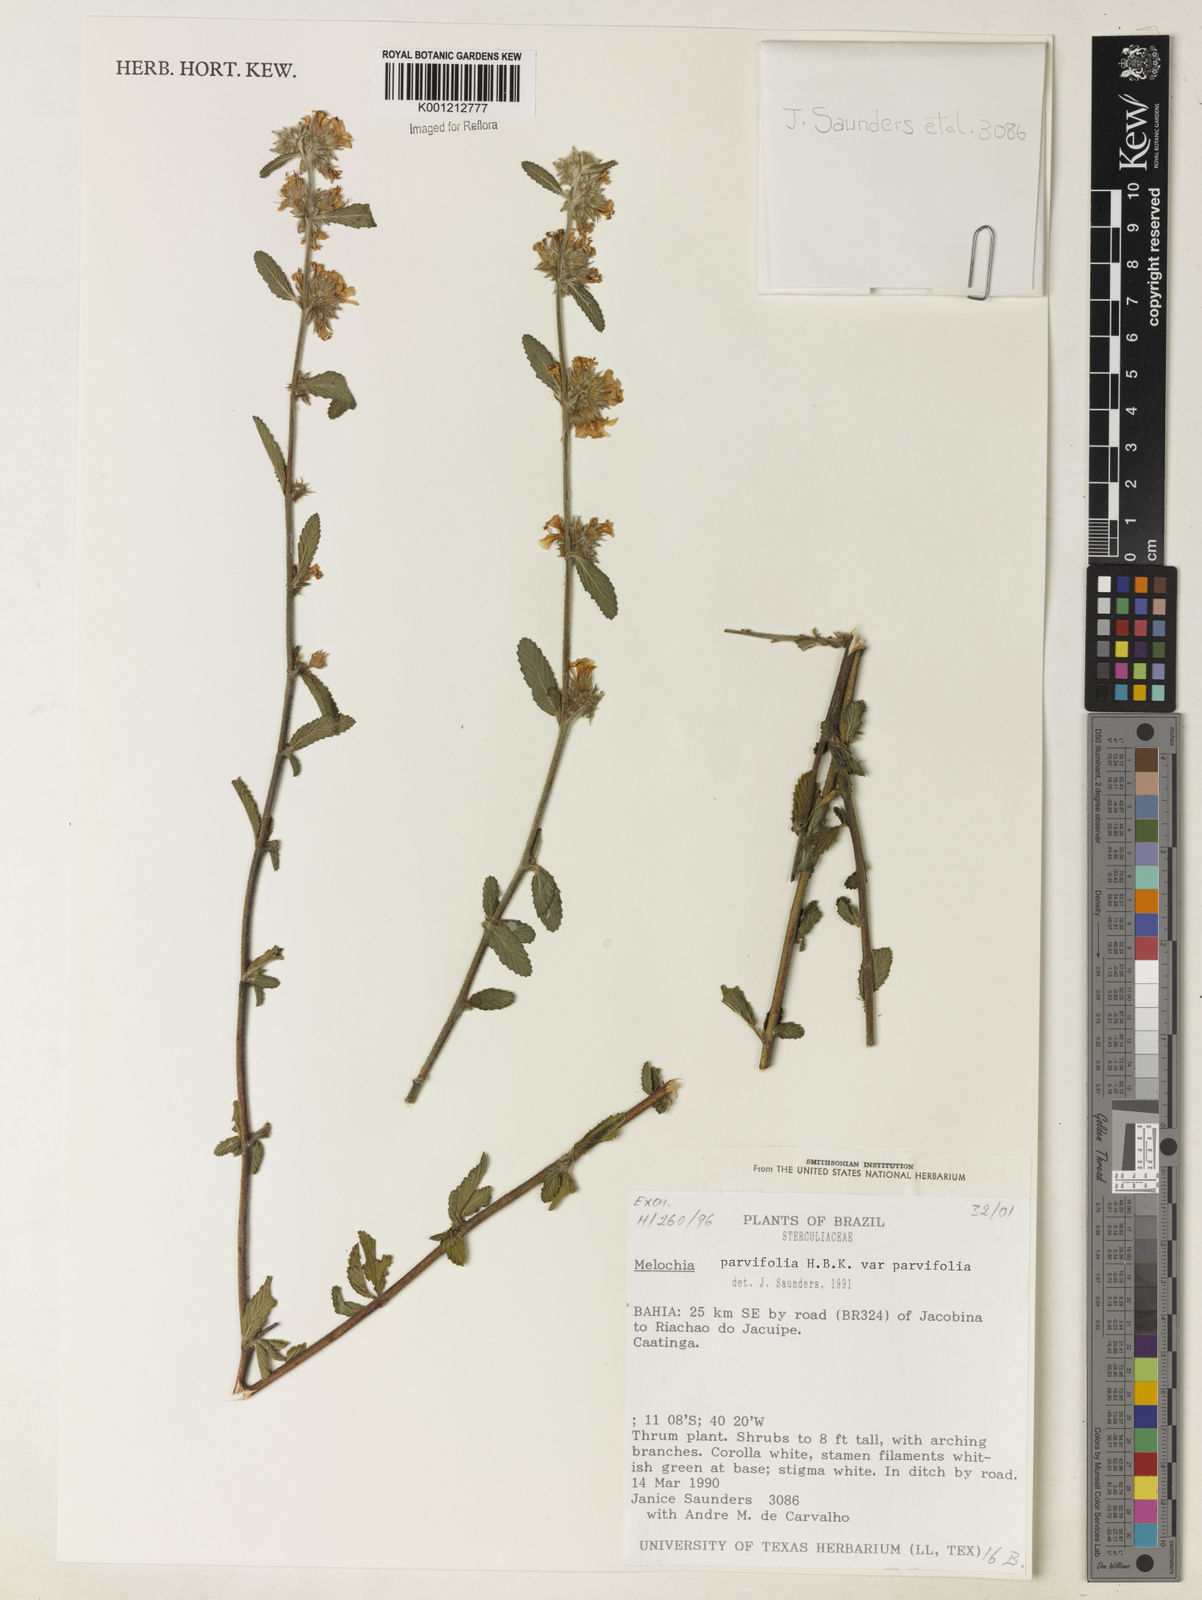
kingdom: Plantae
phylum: Tracheophyta
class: Magnoliopsida
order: Malvales
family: Malvaceae
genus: Melochia
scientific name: Melochia
